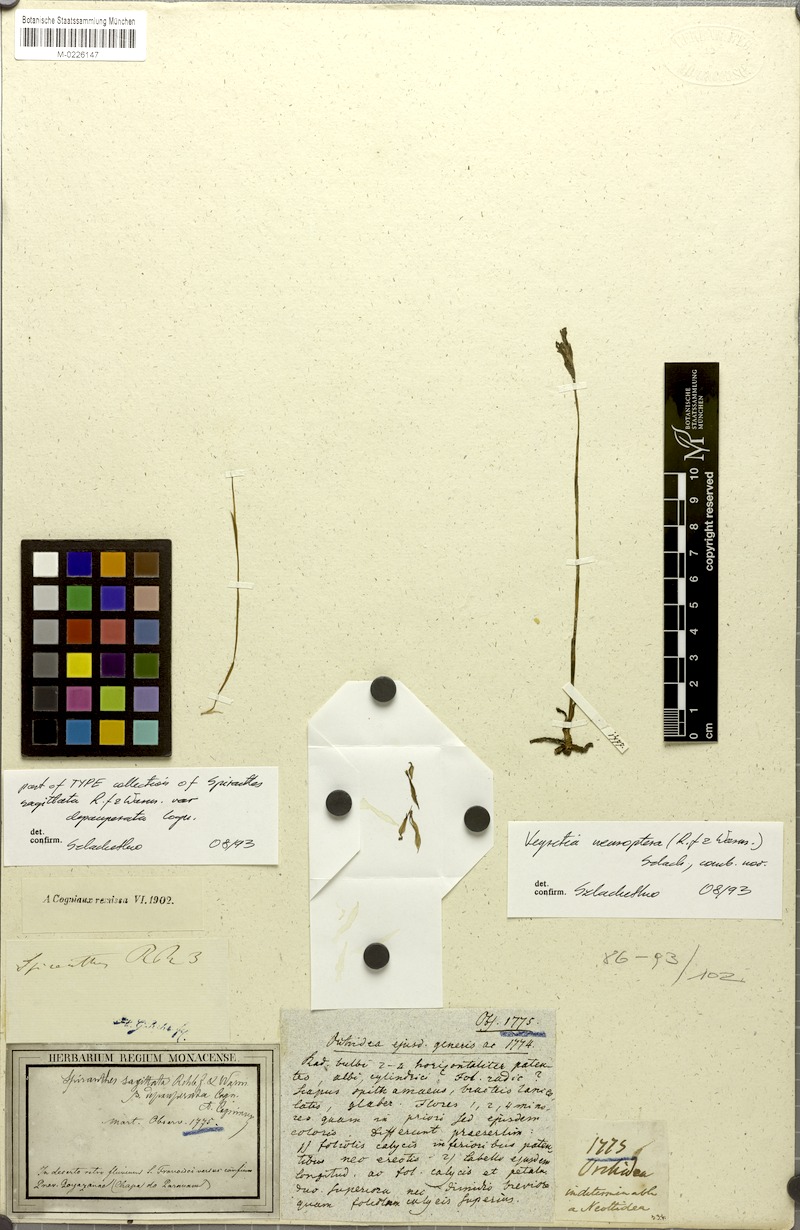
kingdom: Plantae
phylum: Tracheophyta
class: Liliopsida
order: Asparagales
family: Orchidaceae
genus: Veyretia
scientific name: Veyretia neuroptera
